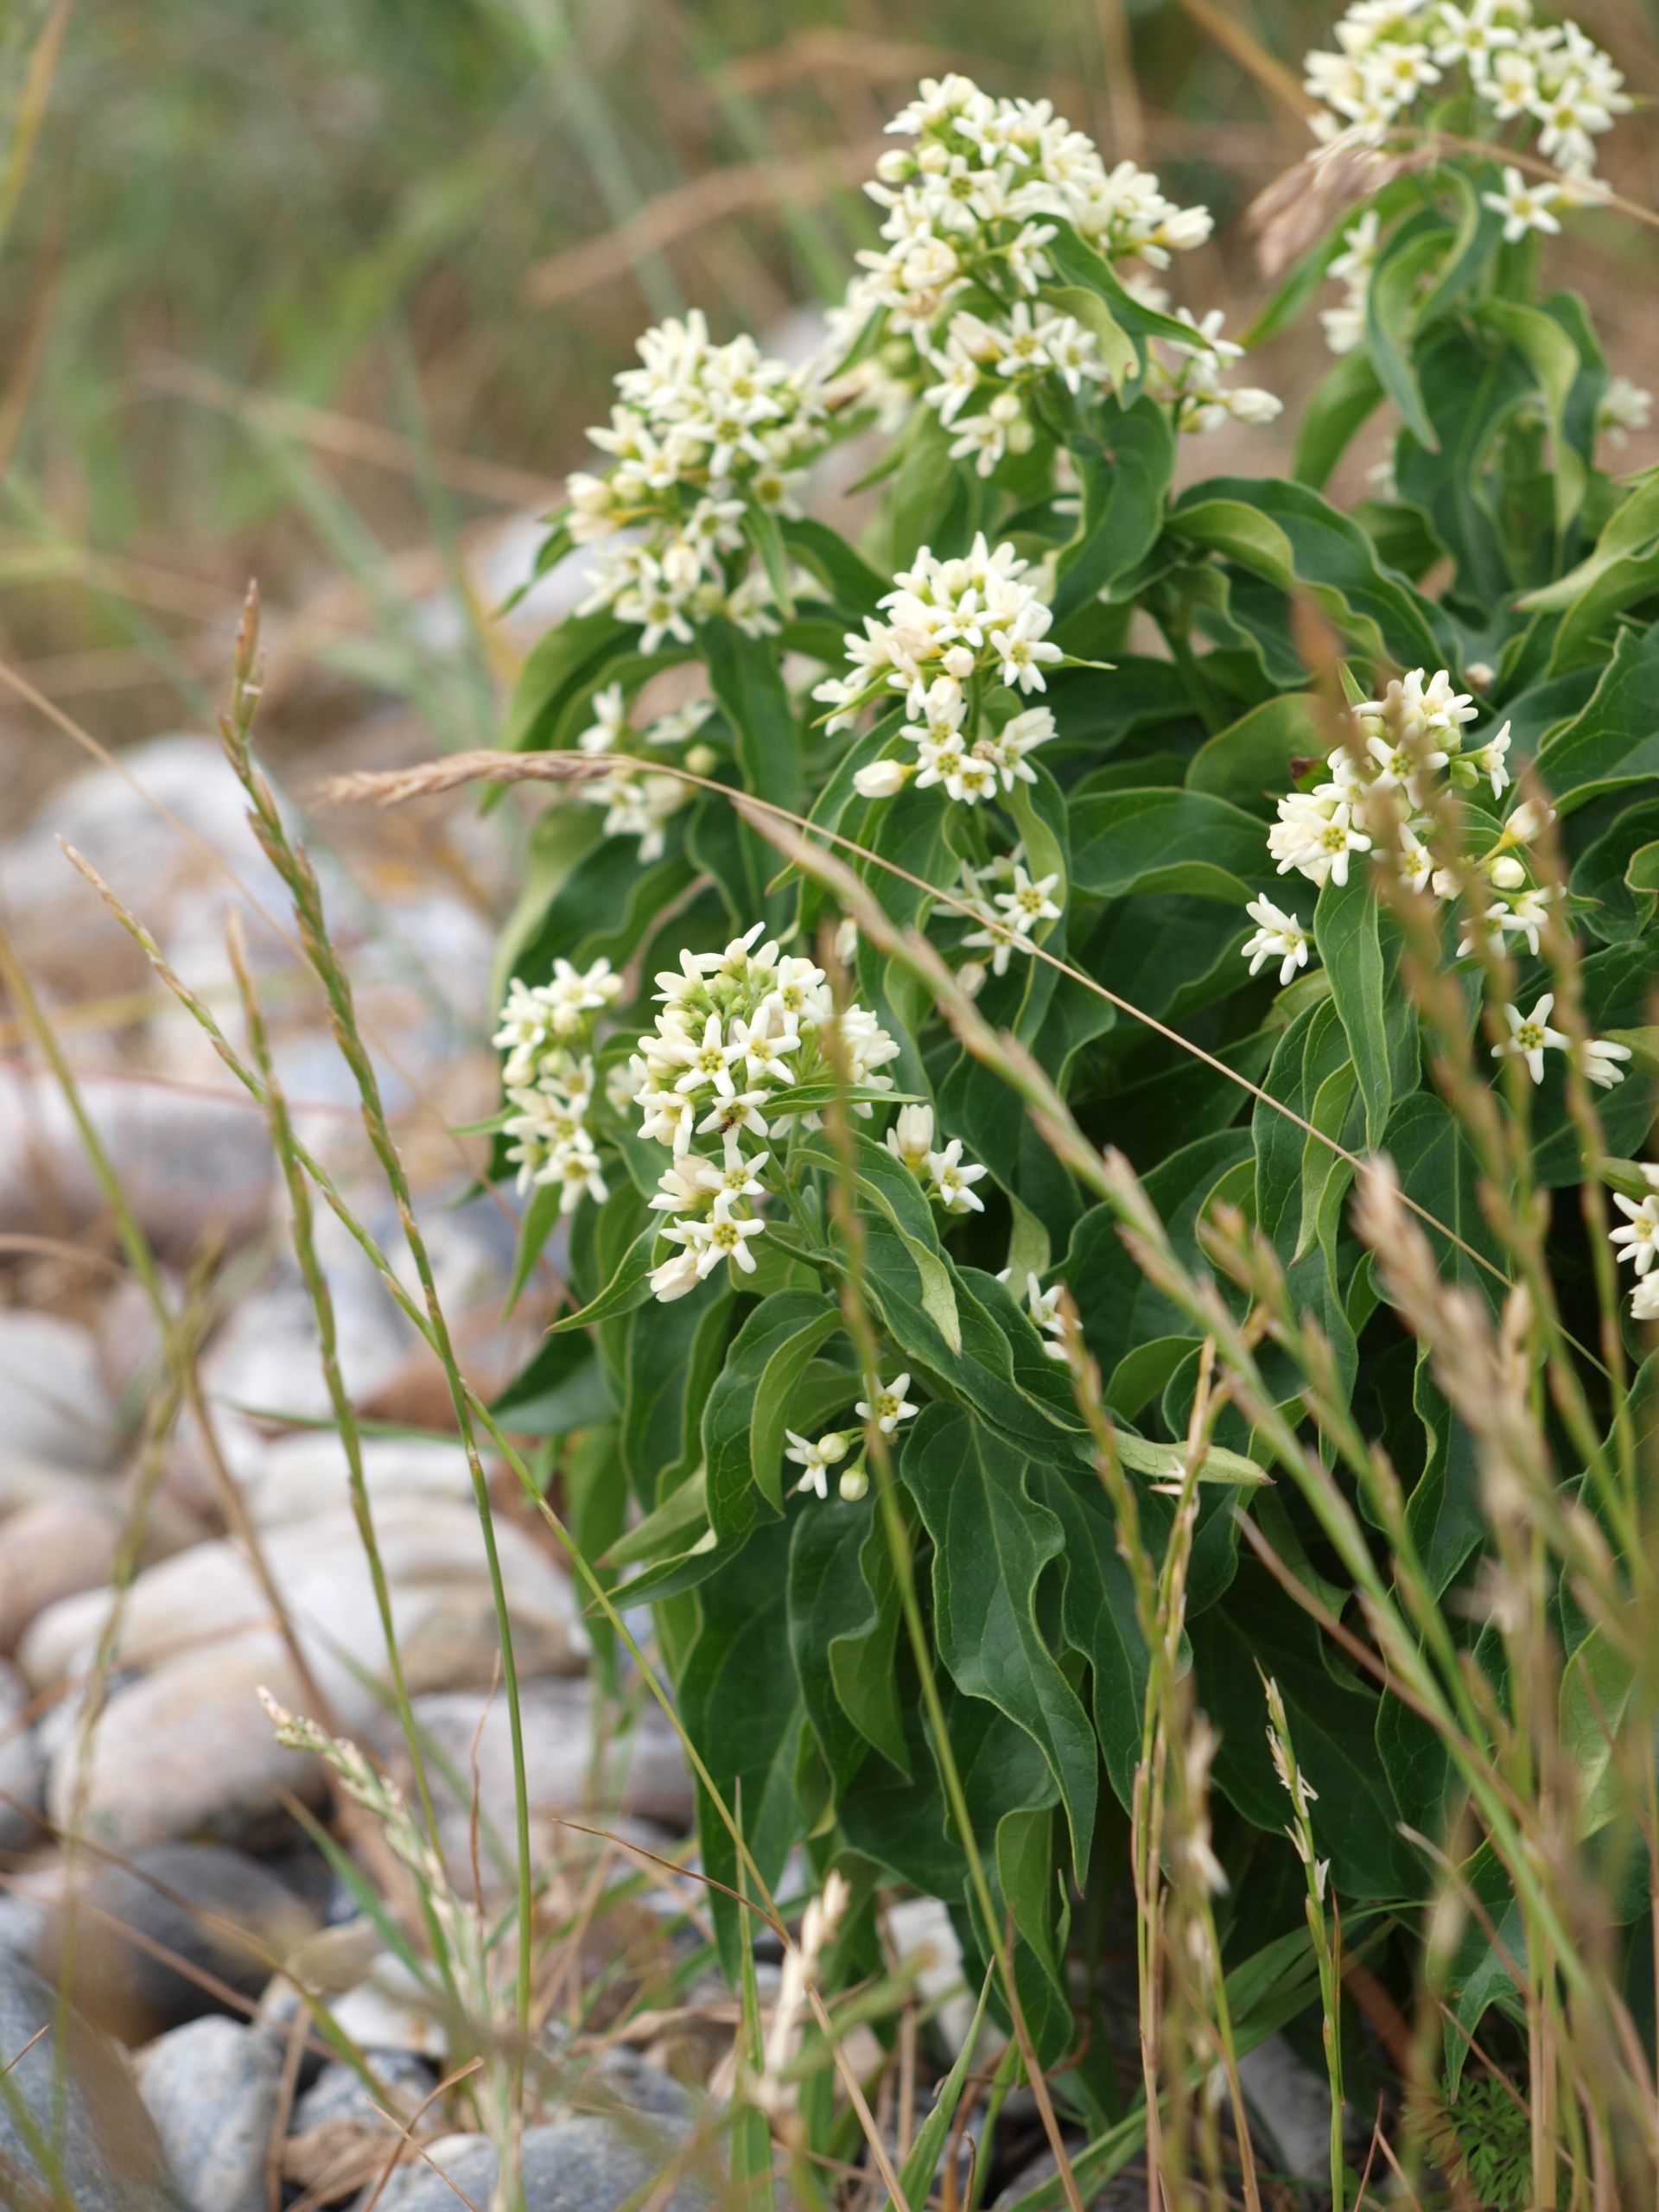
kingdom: Plantae
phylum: Tracheophyta
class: Magnoliopsida
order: Gentianales
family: Apocynaceae
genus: Vincetoxicum
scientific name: Vincetoxicum hirundinaria
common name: Svalerod
